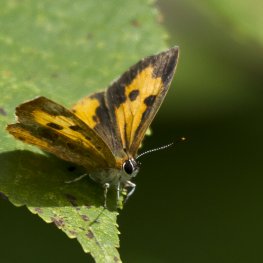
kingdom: Animalia
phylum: Arthropoda
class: Insecta
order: Lepidoptera
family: Lycaenidae
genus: Feniseca
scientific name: Feniseca tarquinius
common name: Harvester
